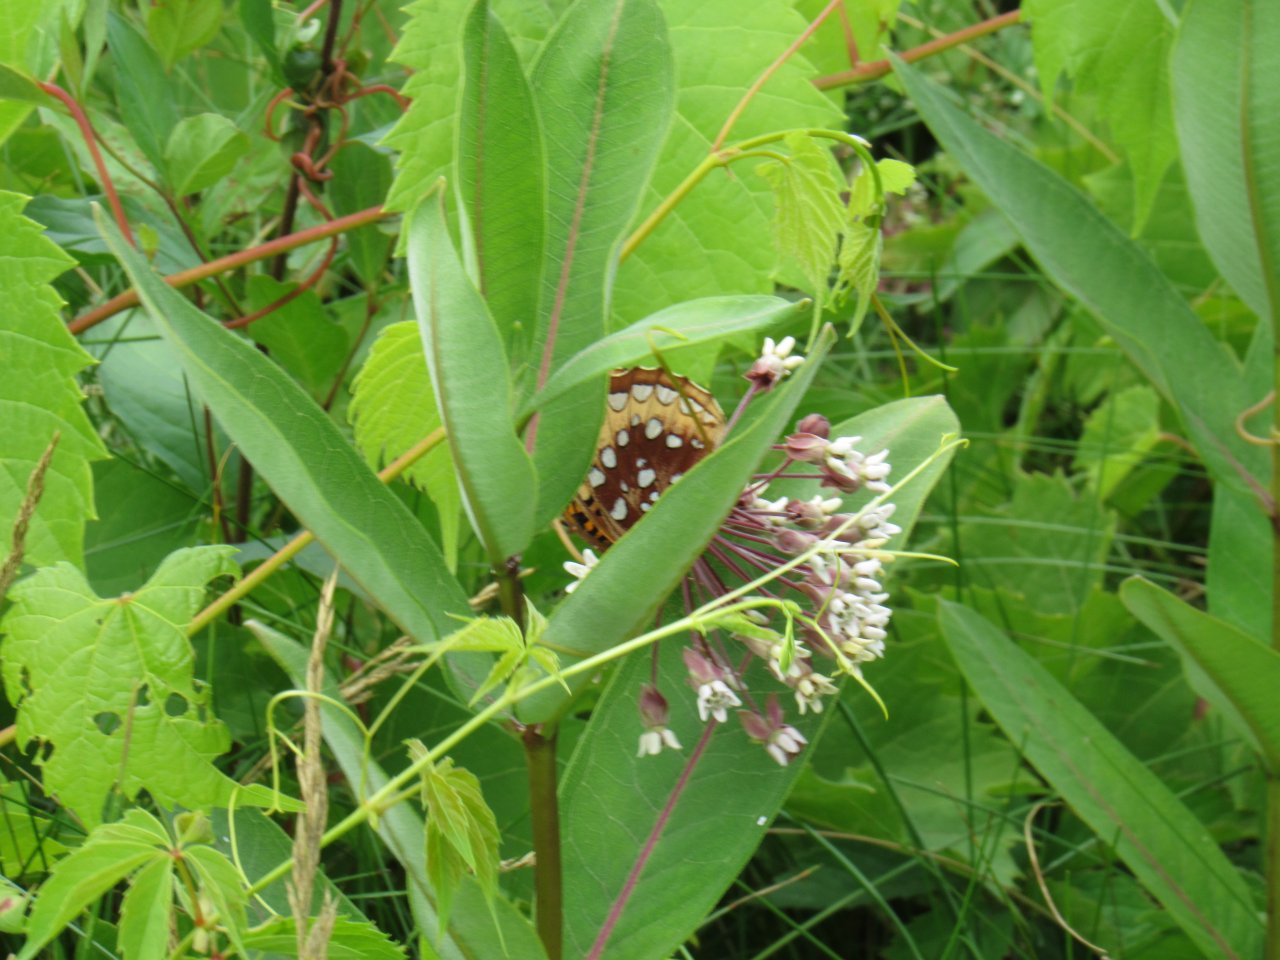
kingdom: Animalia
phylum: Arthropoda
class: Insecta
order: Lepidoptera
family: Nymphalidae
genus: Speyeria
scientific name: Speyeria cybele
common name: Great Spangled Fritillary
